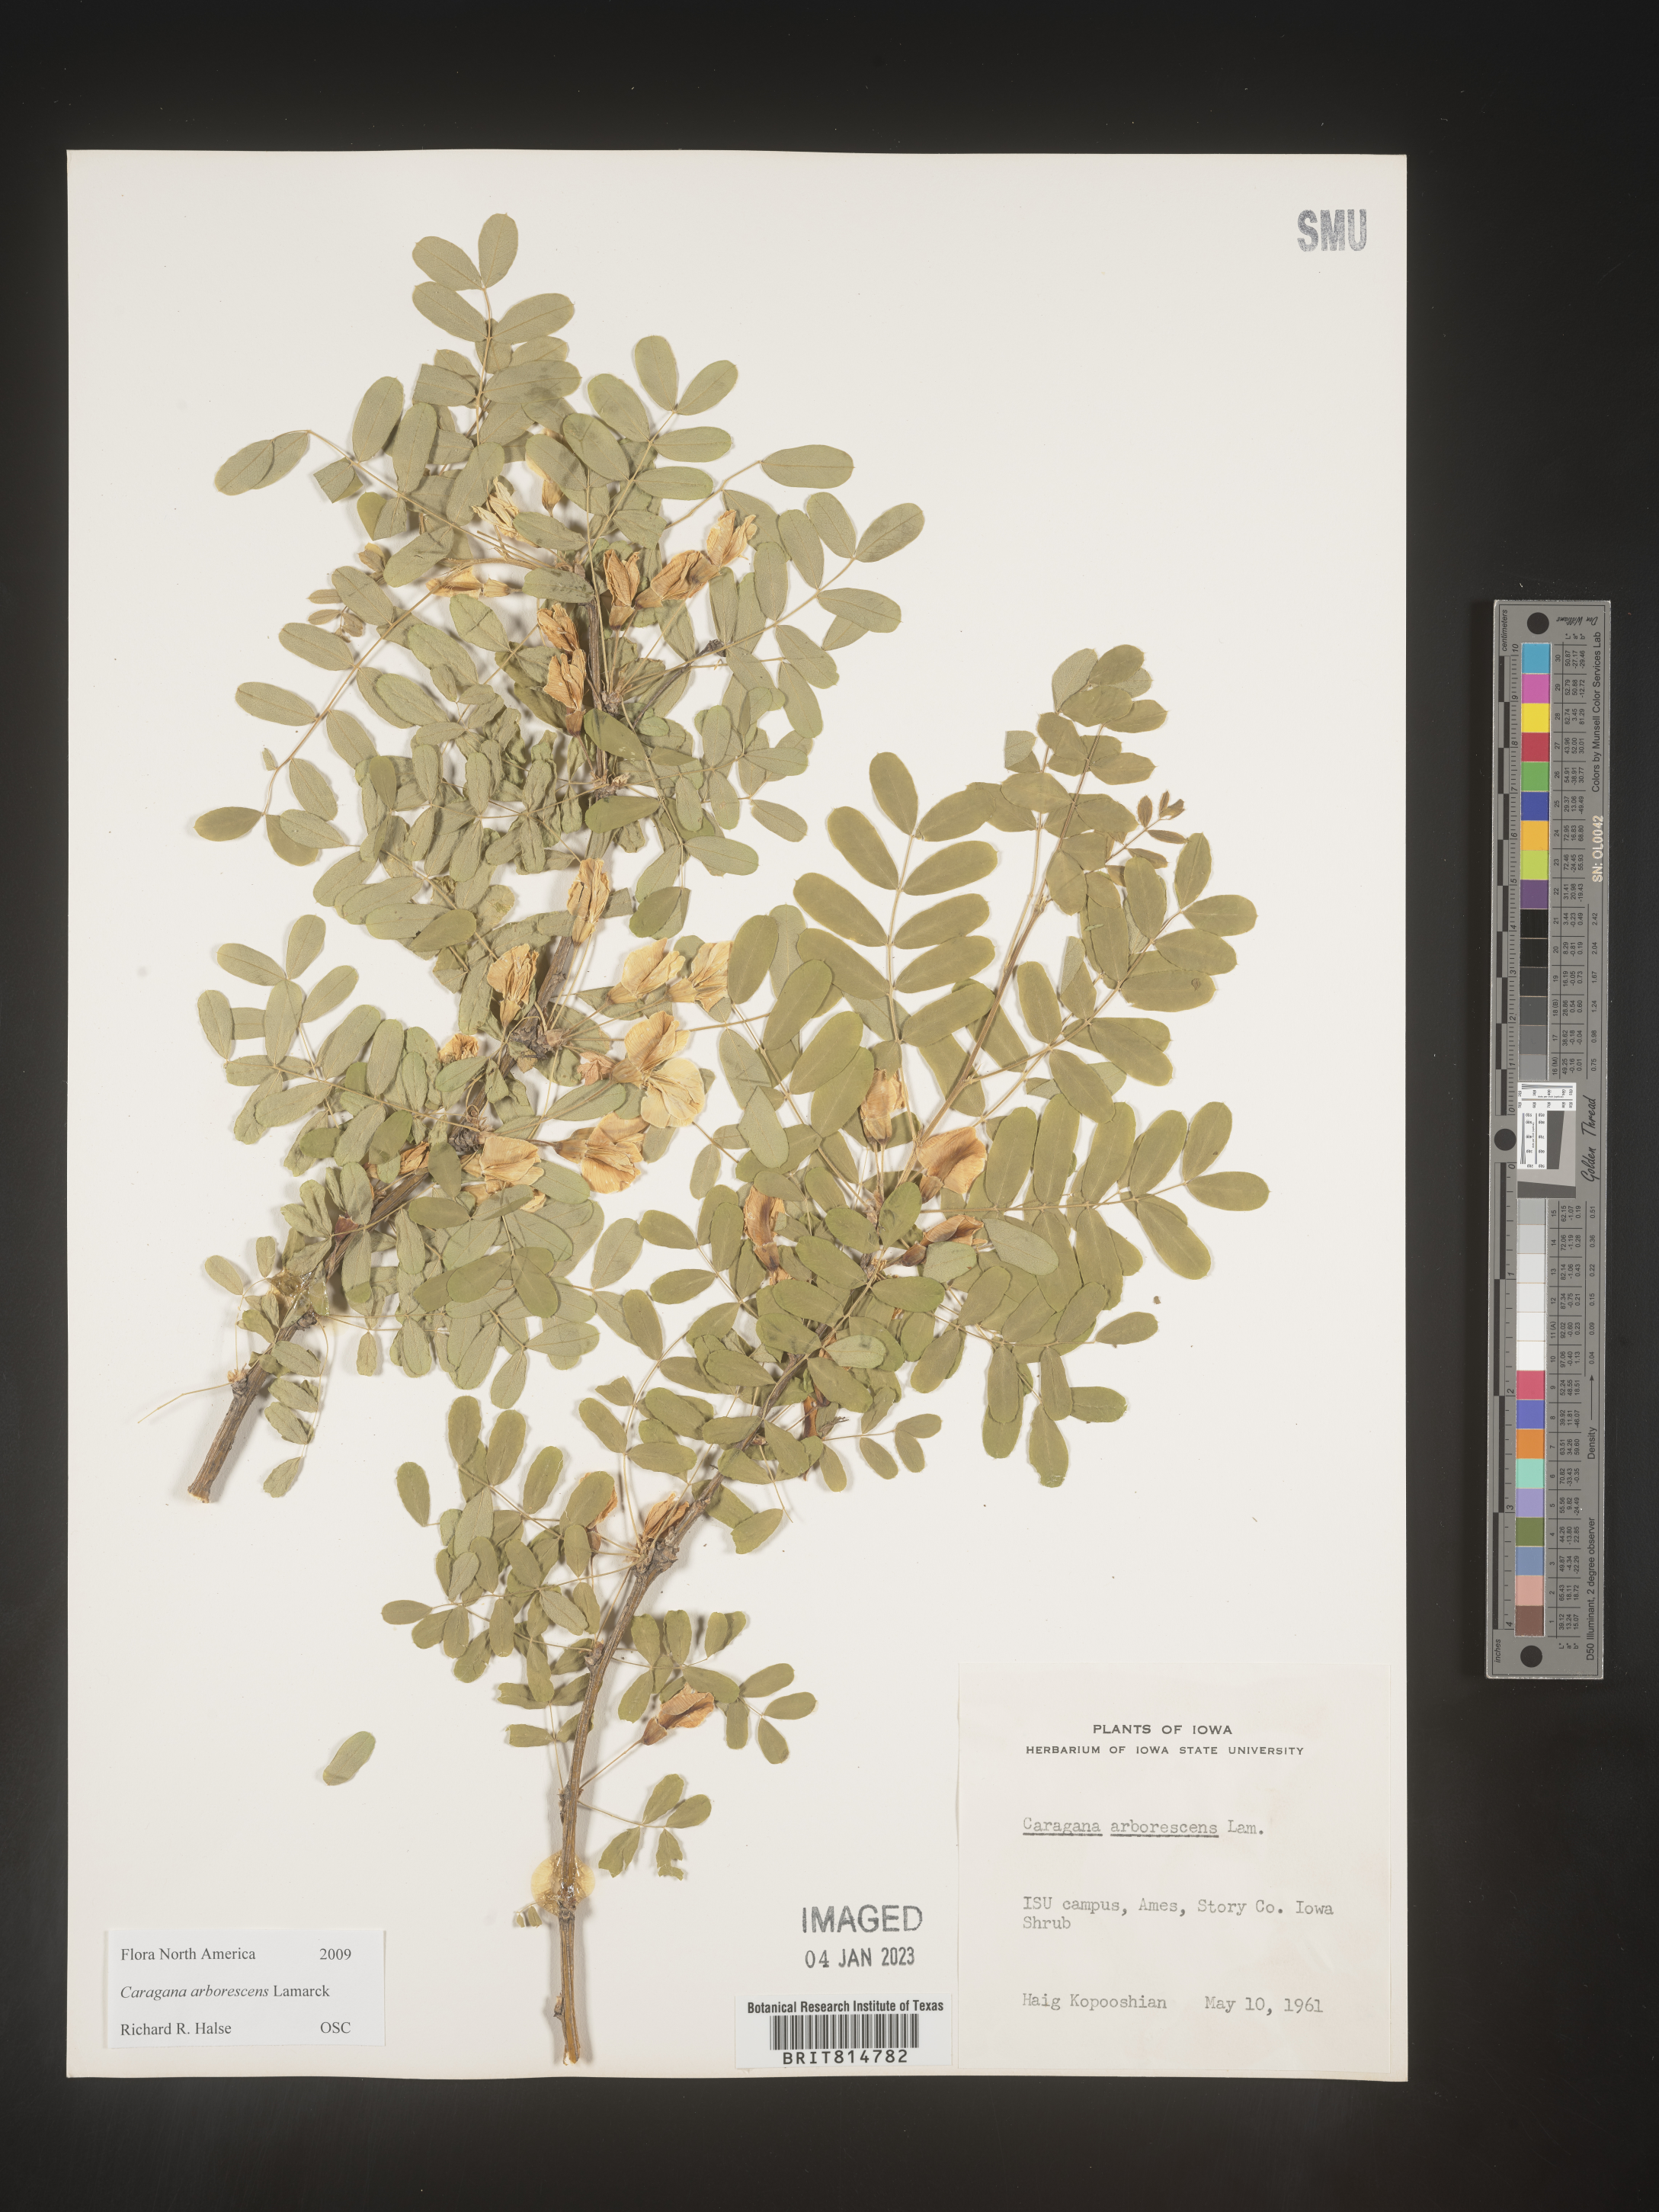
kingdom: Plantae
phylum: Tracheophyta
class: Magnoliopsida
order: Fabales
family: Fabaceae
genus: Caragana
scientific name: Caragana
